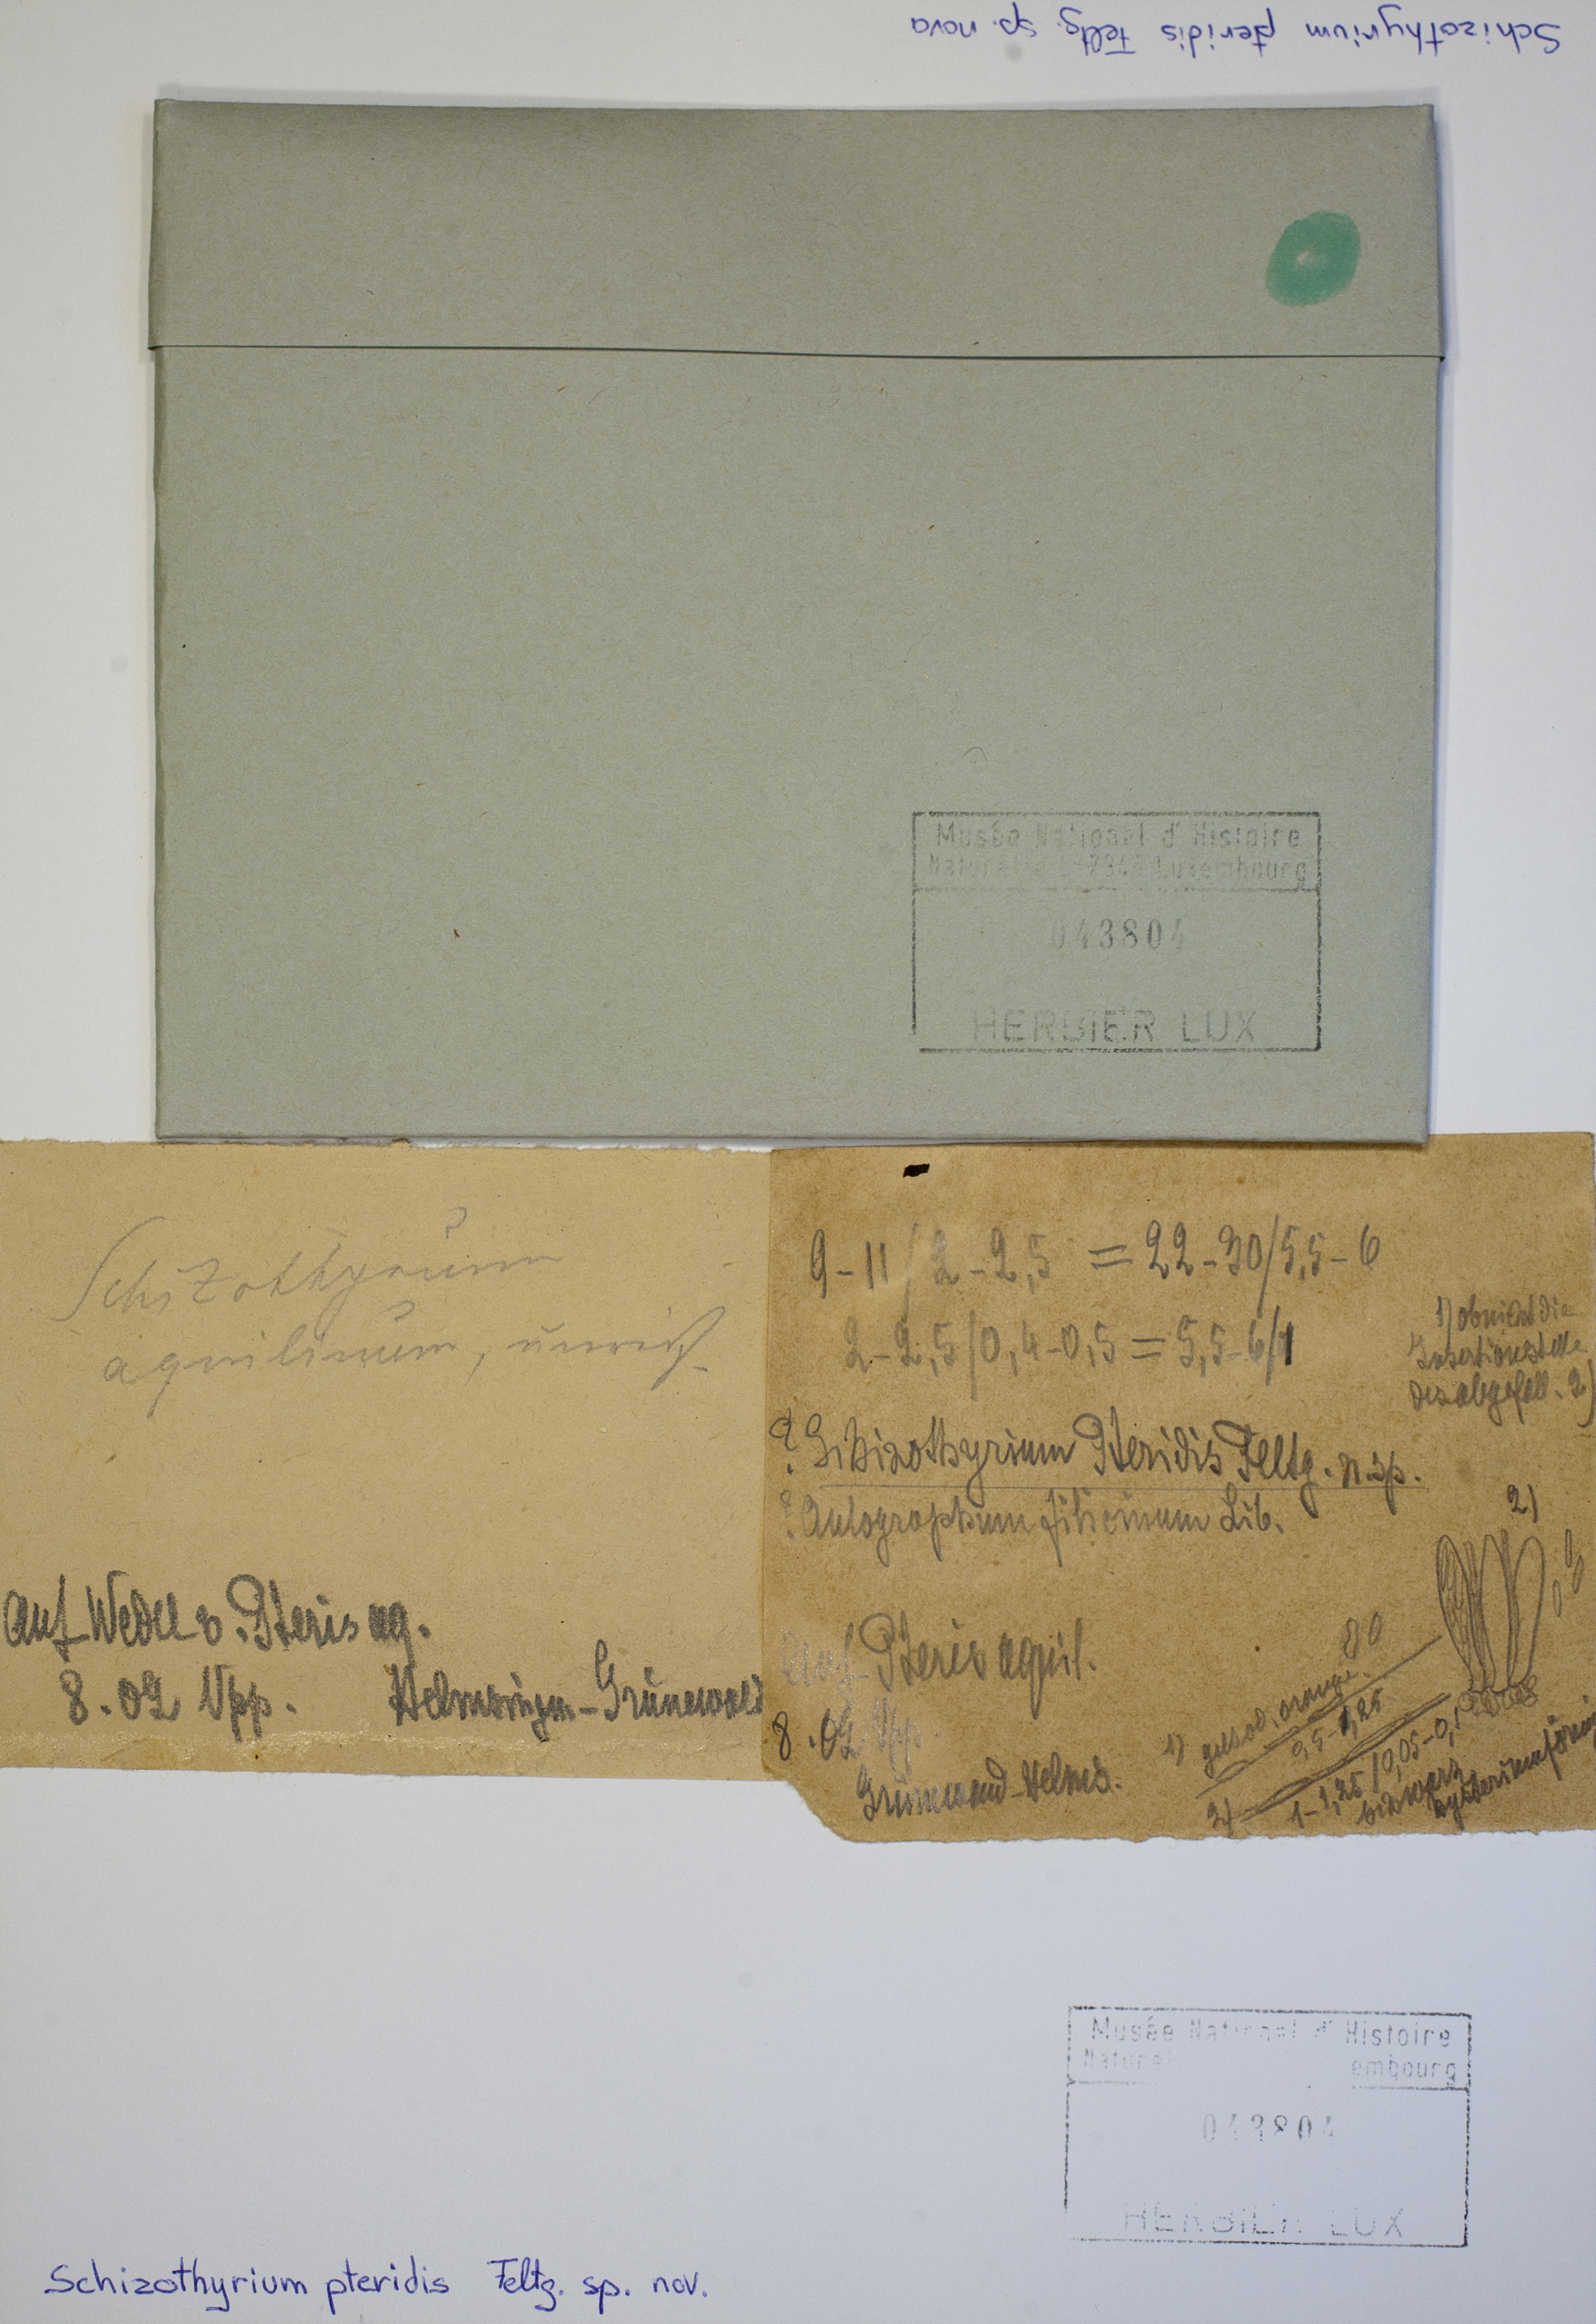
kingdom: Fungi
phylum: Ascomycota
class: Dothideomycetes
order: Mycosphaerellales
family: Schizothyriaceae
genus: Schizothyrium
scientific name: Schizothyrium pteridis
